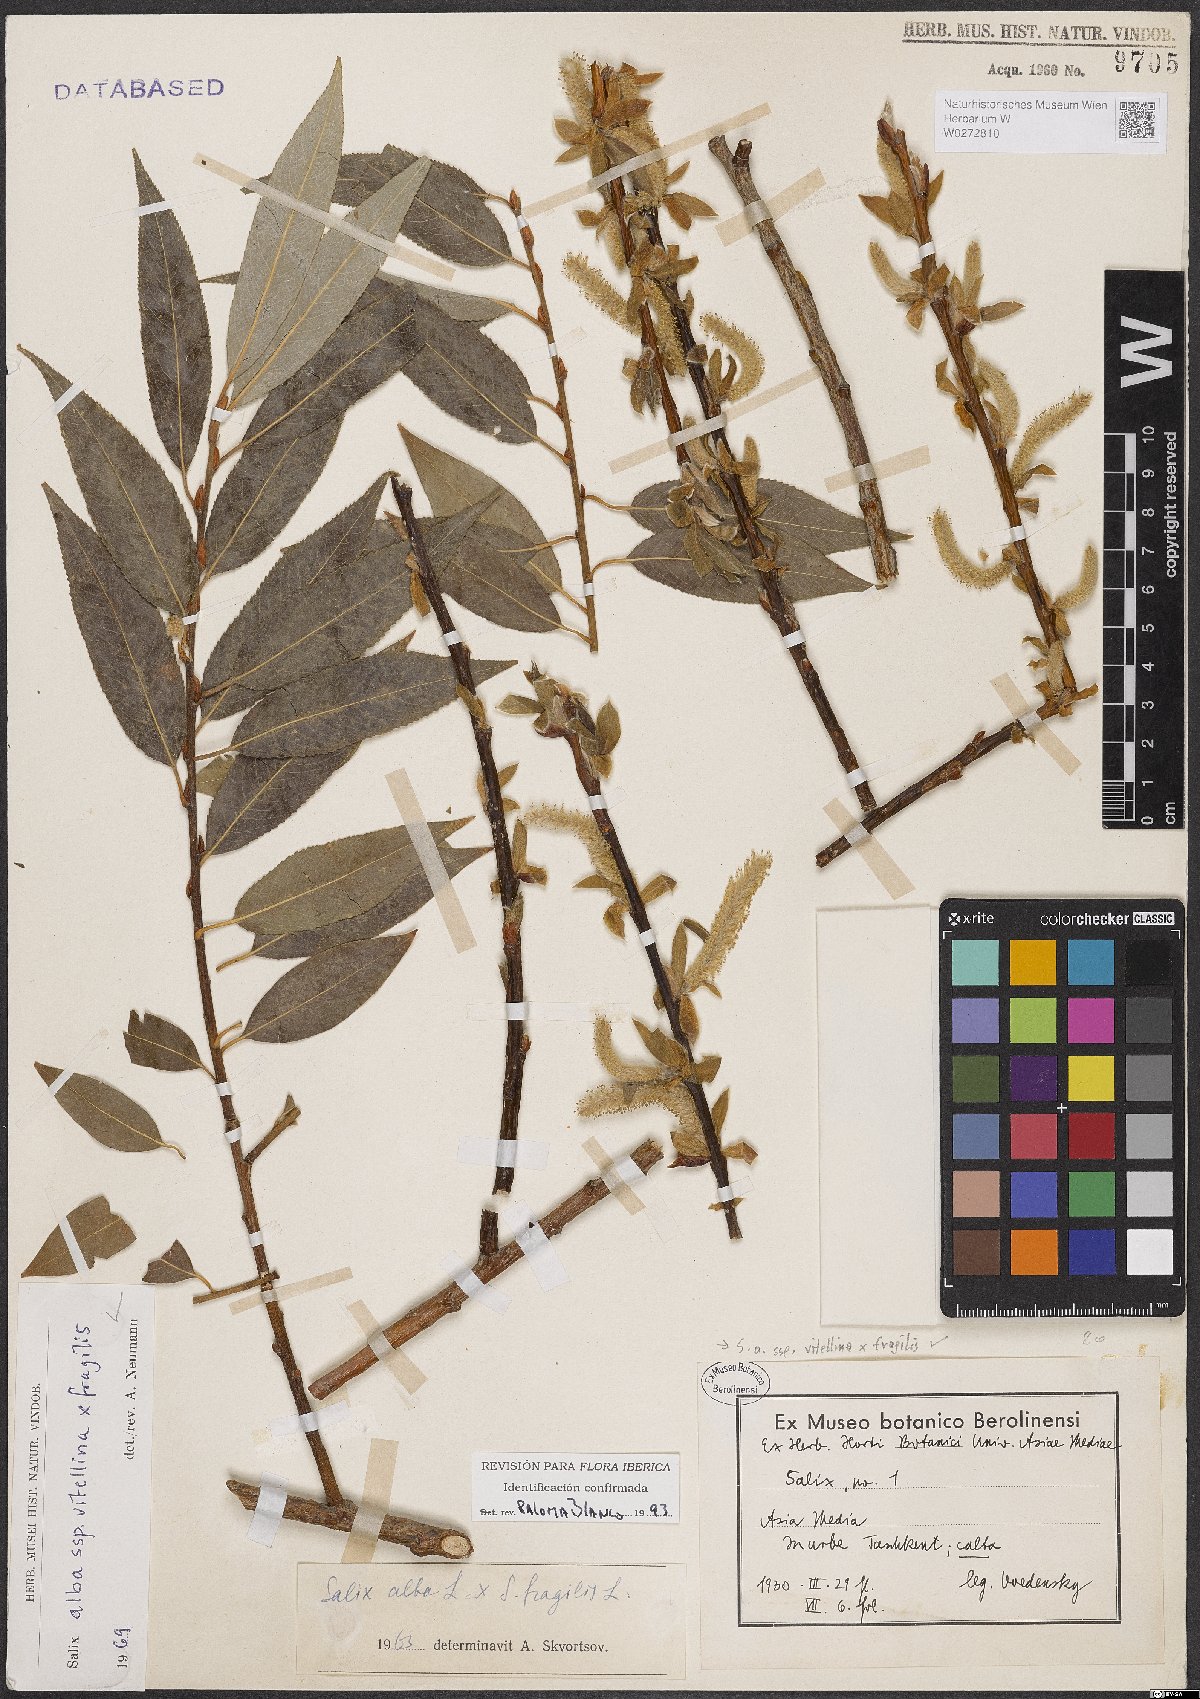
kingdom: Plantae
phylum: Tracheophyta
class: Magnoliopsida
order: Malpighiales
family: Salicaceae
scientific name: Salicaceae
